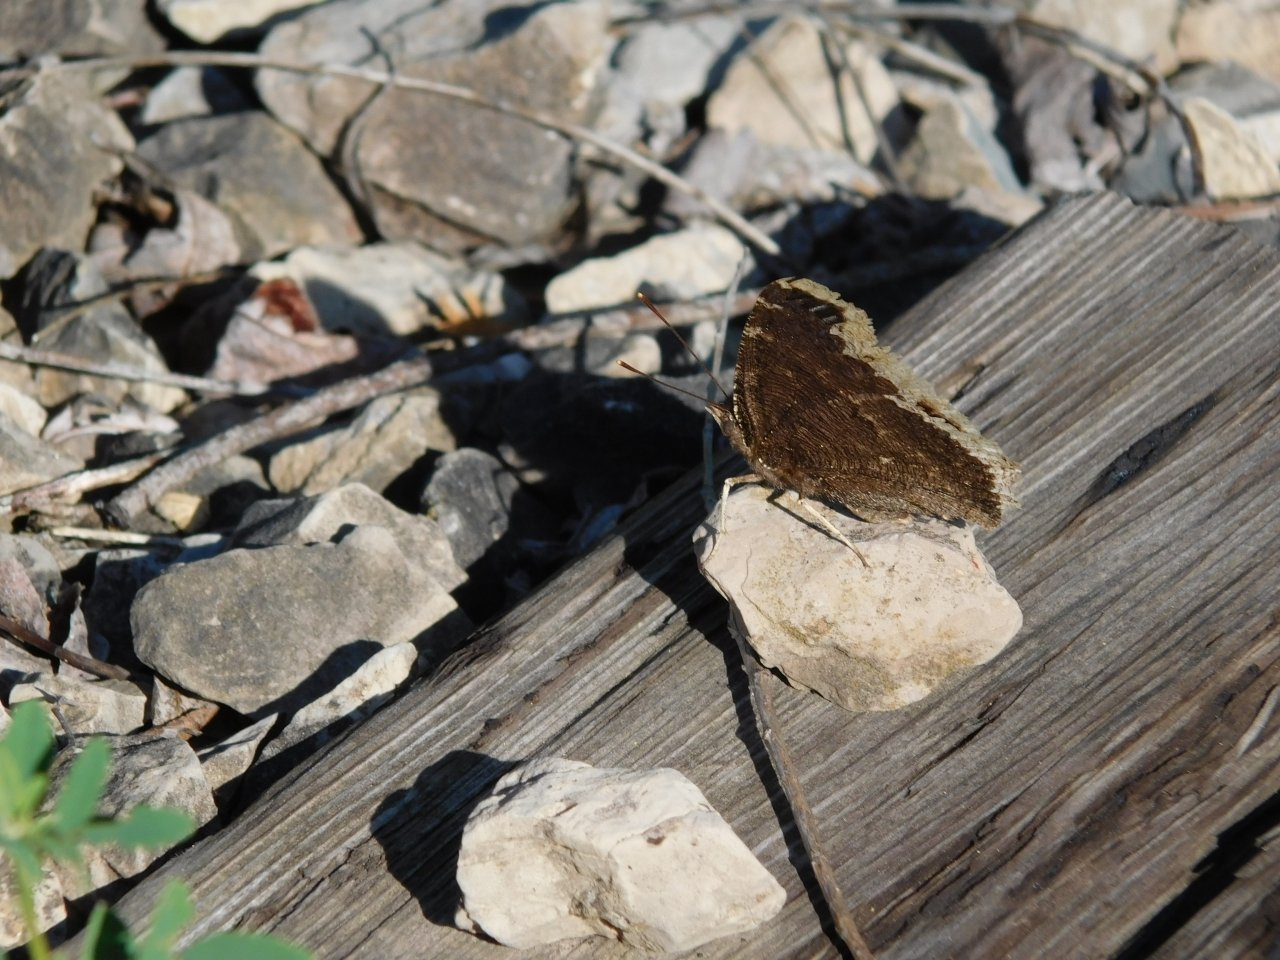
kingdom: Animalia
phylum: Arthropoda
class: Insecta
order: Lepidoptera
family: Nymphalidae
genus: Nymphalis
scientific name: Nymphalis antiopa
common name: Mourning Cloak
